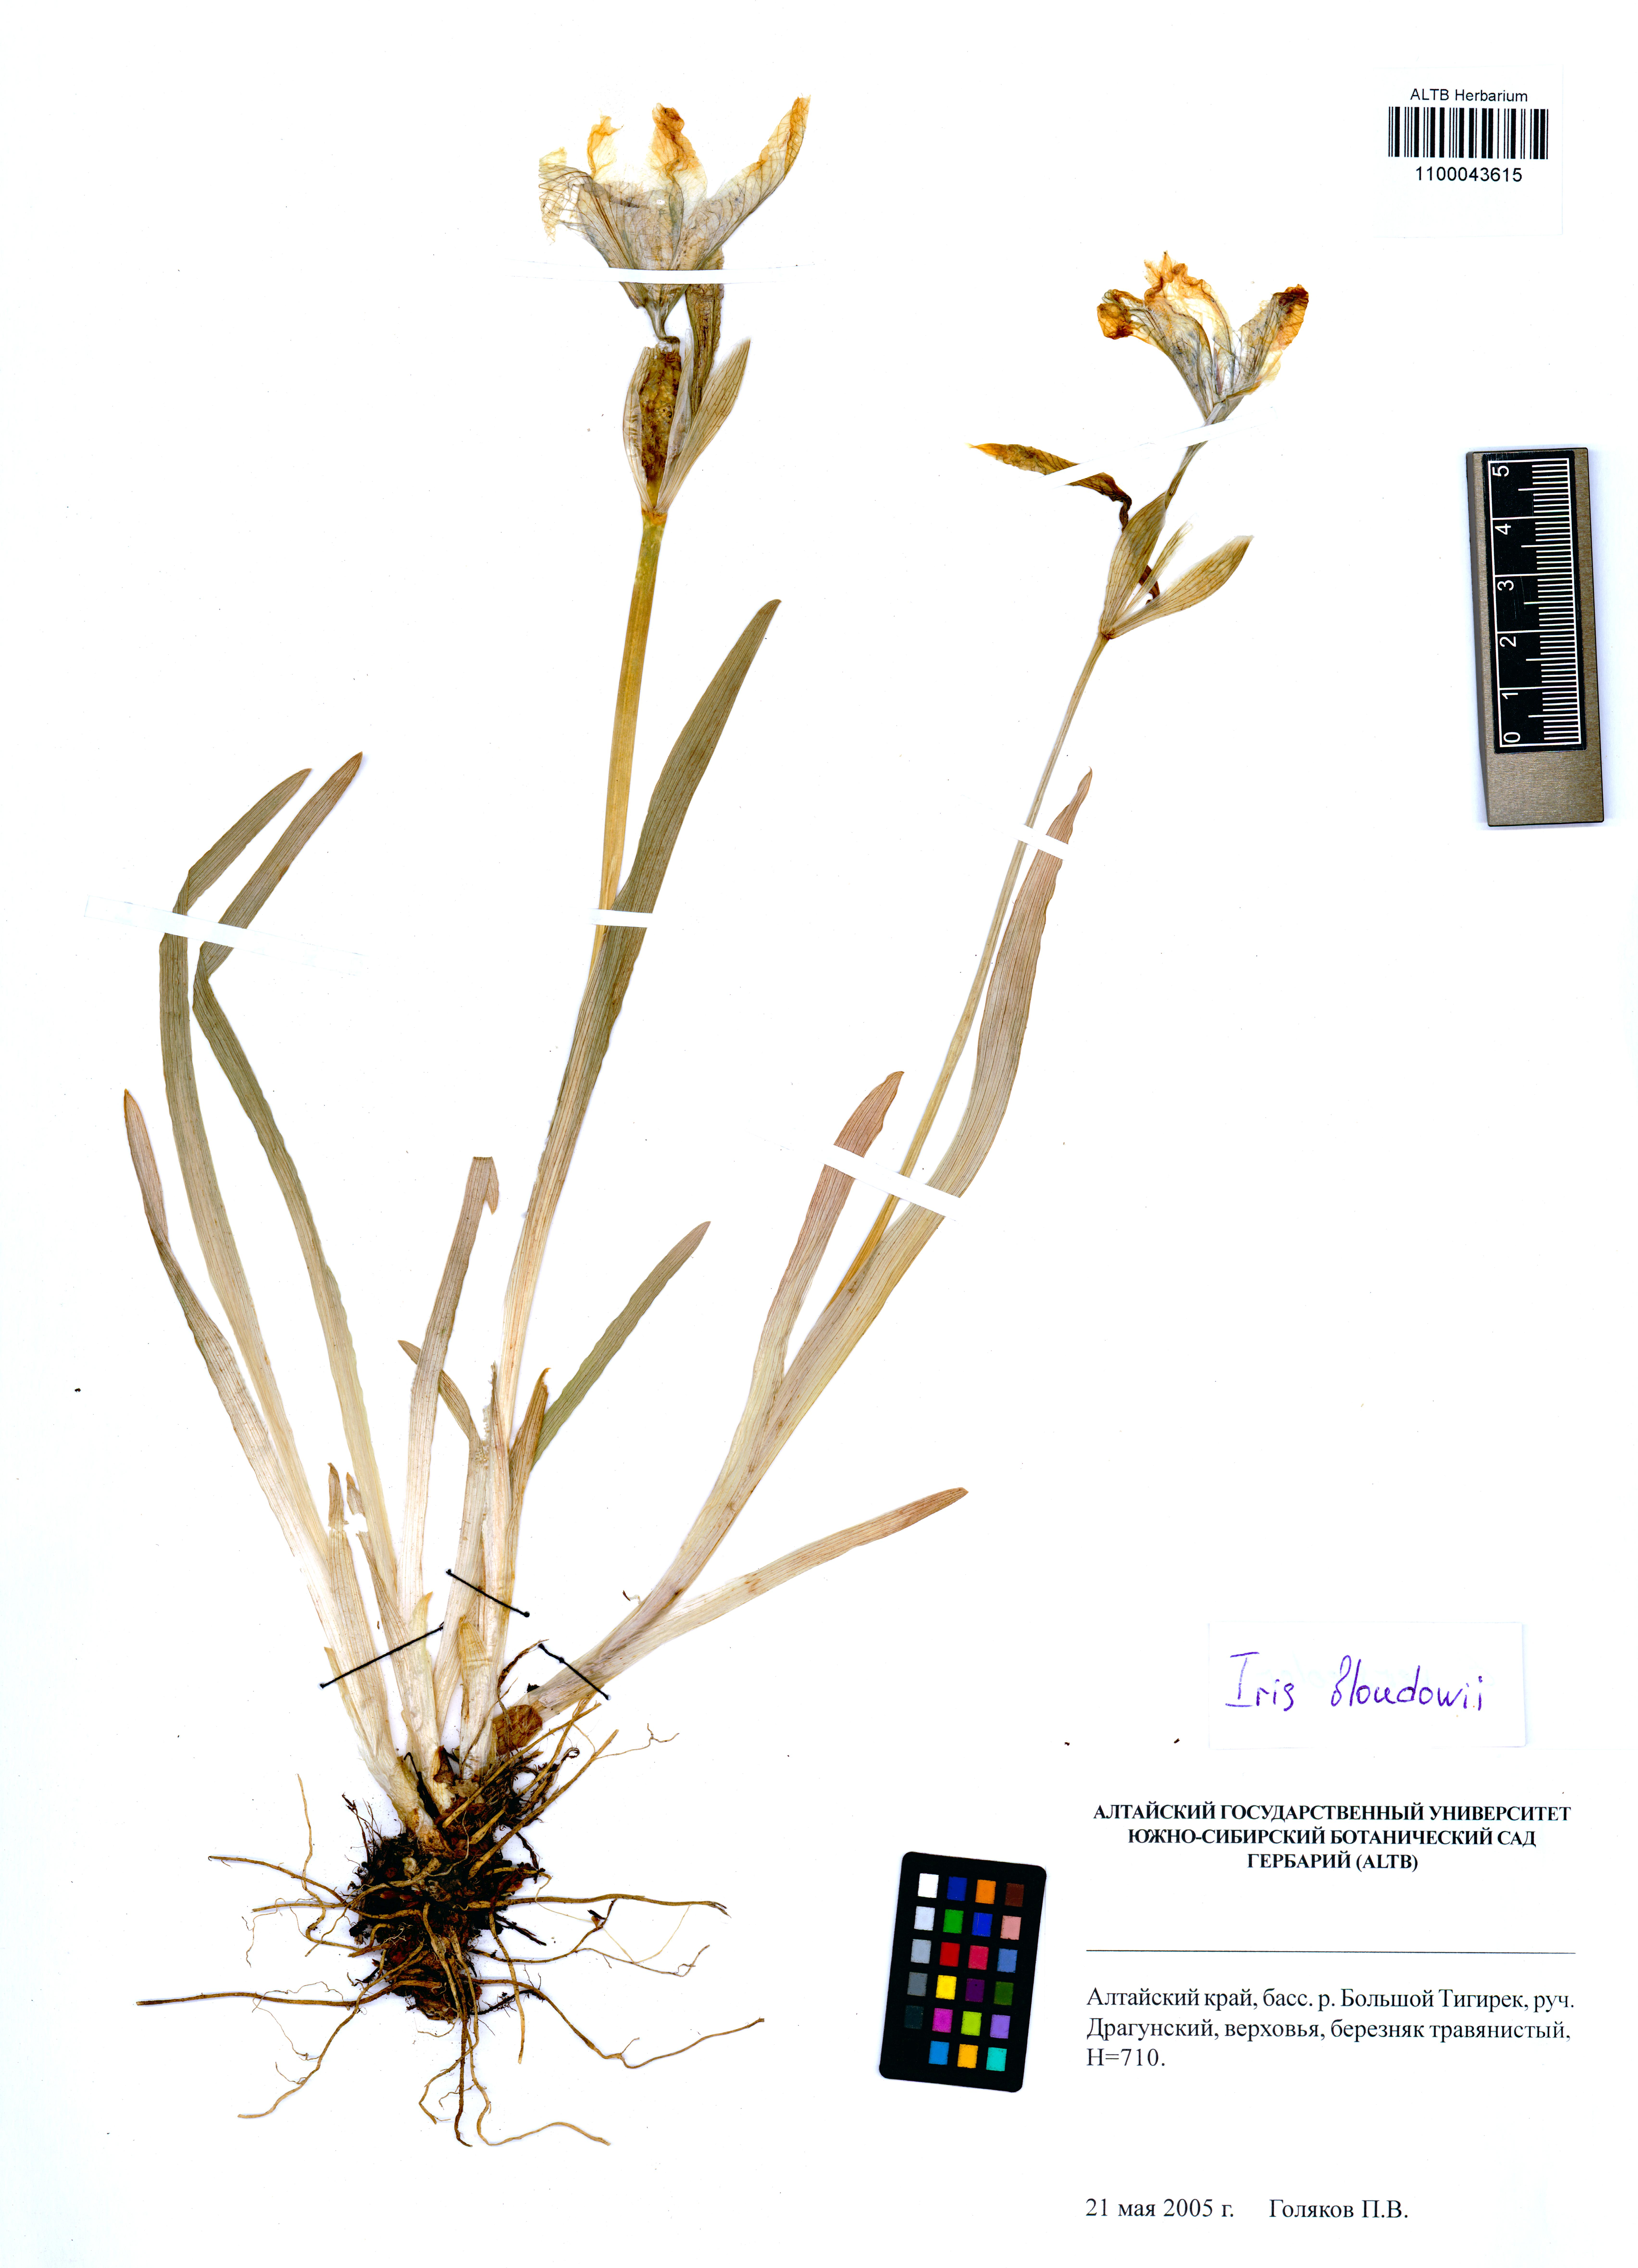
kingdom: Plantae
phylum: Tracheophyta
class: Liliopsida
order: Asparagales
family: Iridaceae
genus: Iris
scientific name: Iris bloudowii
